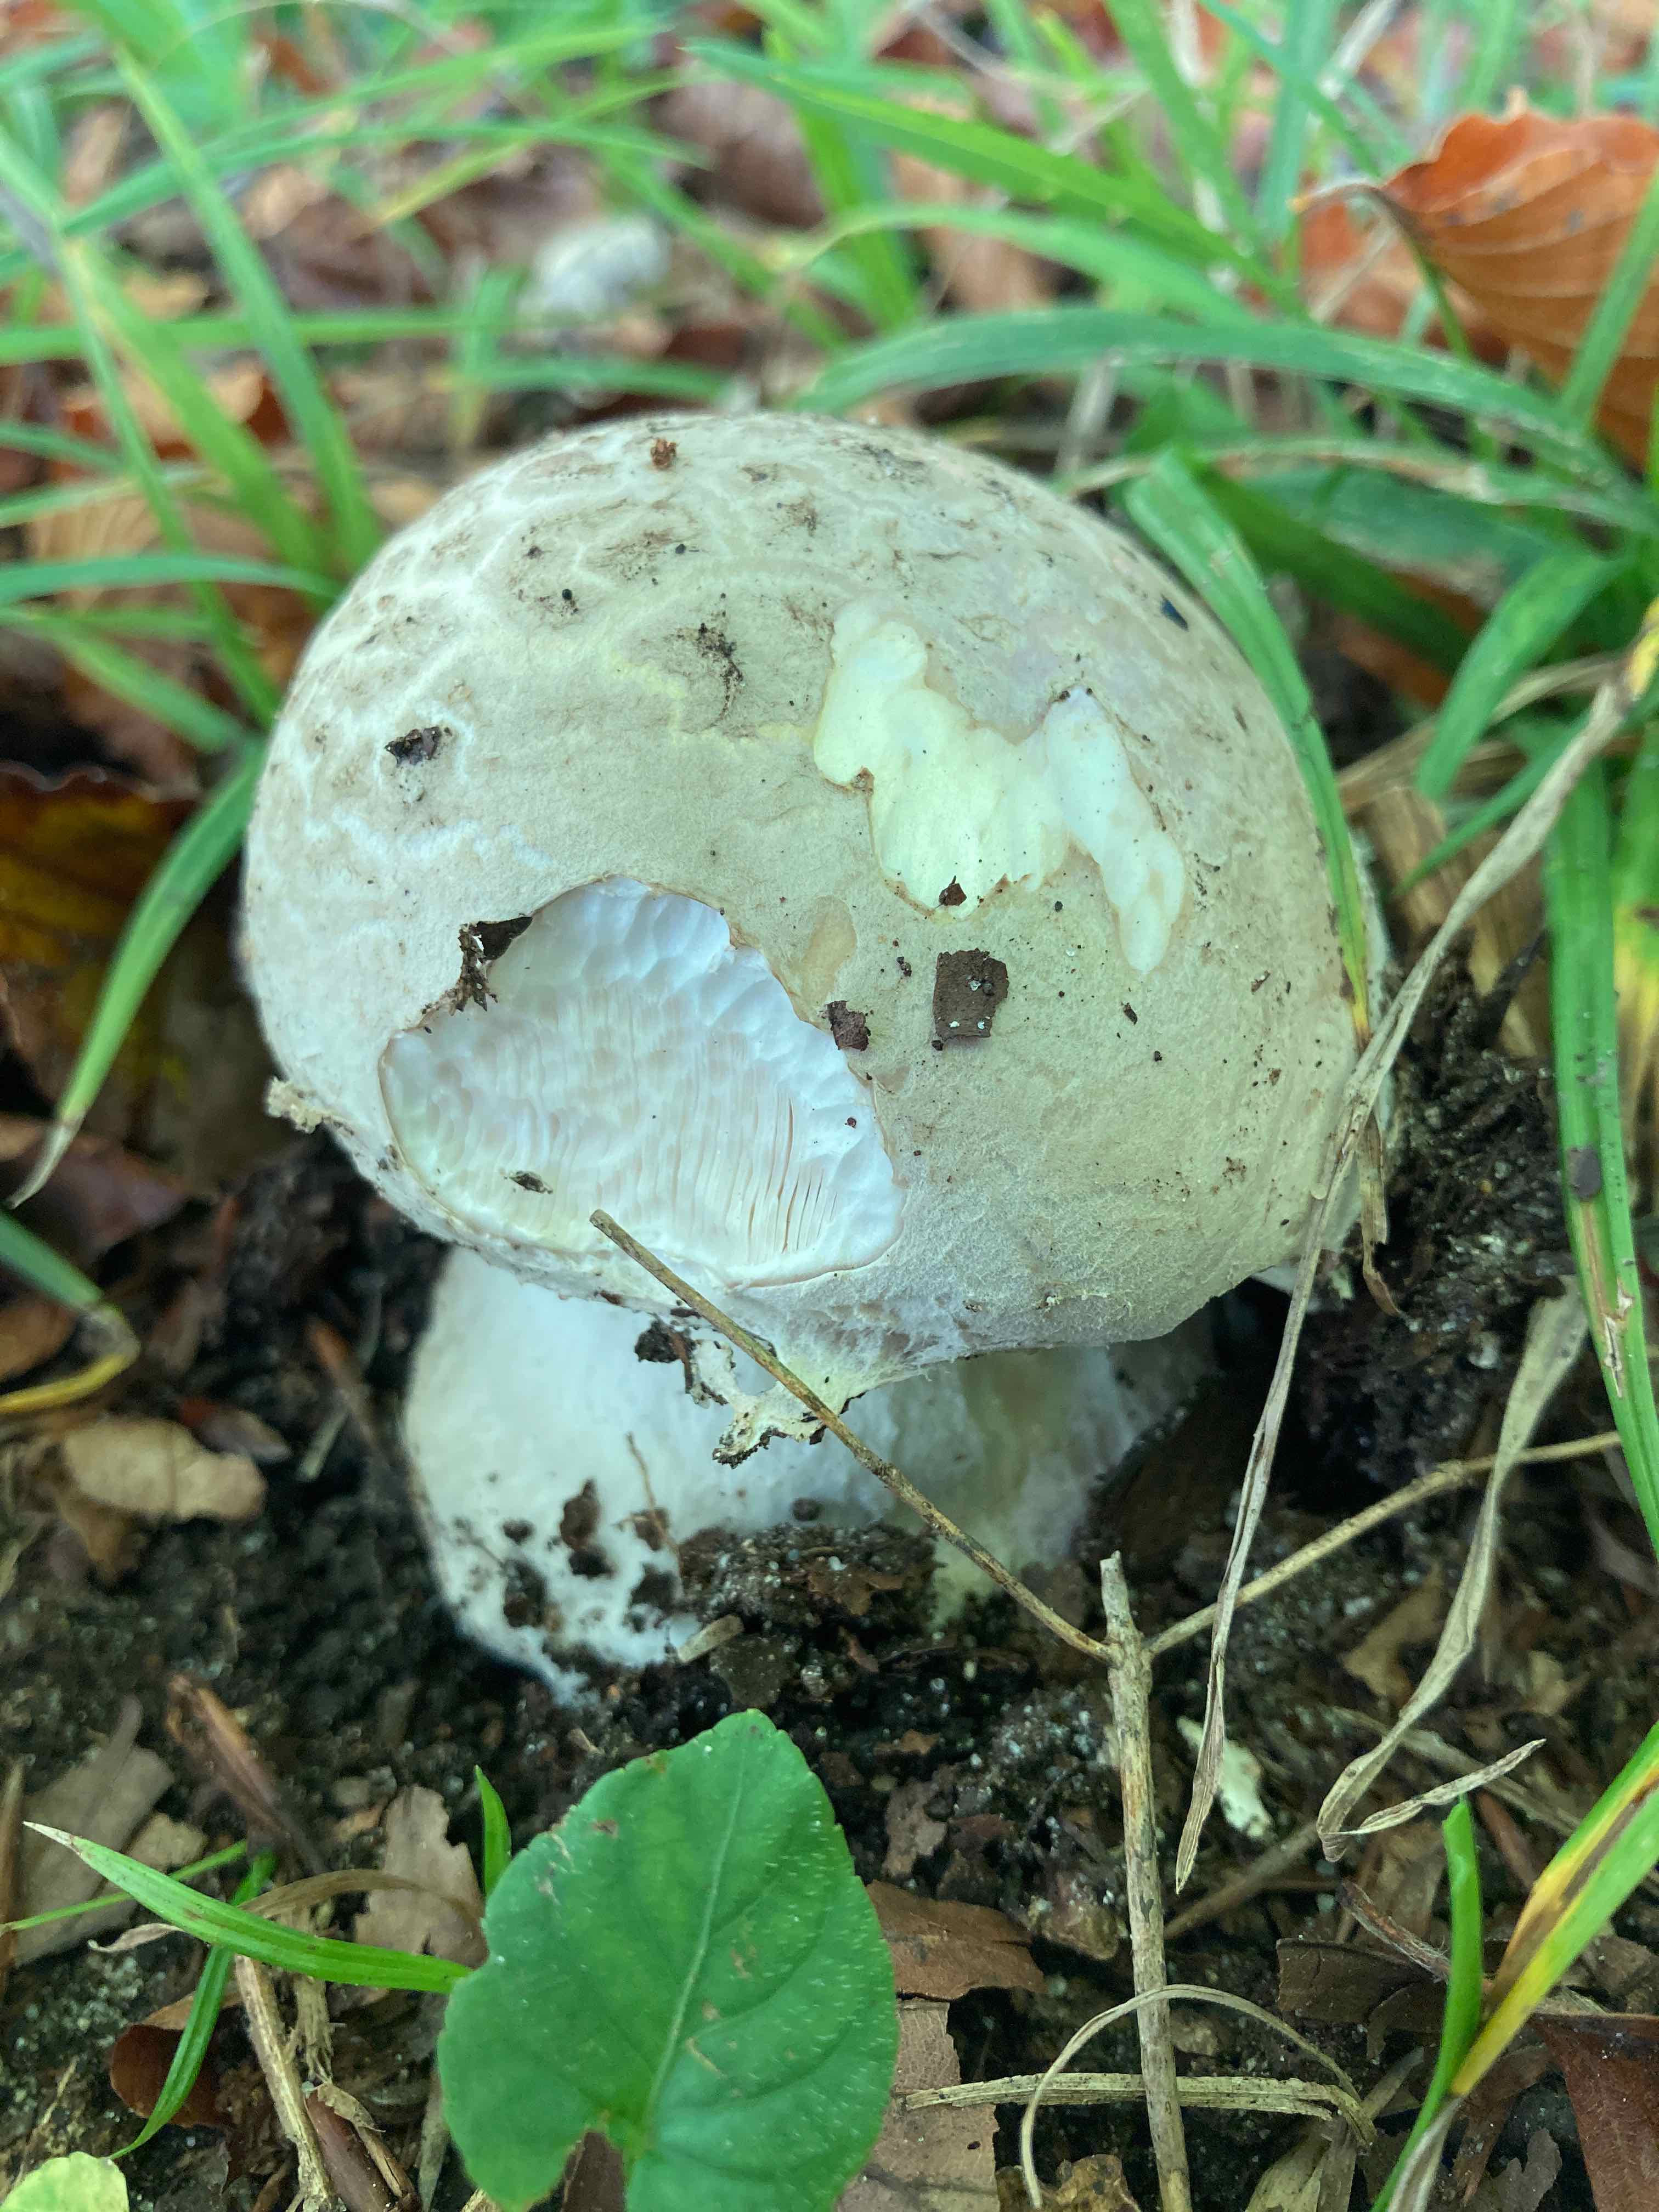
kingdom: Fungi
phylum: Basidiomycota
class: Agaricomycetes
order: Agaricales
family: Amanitaceae
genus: Amanita
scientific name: Amanita
